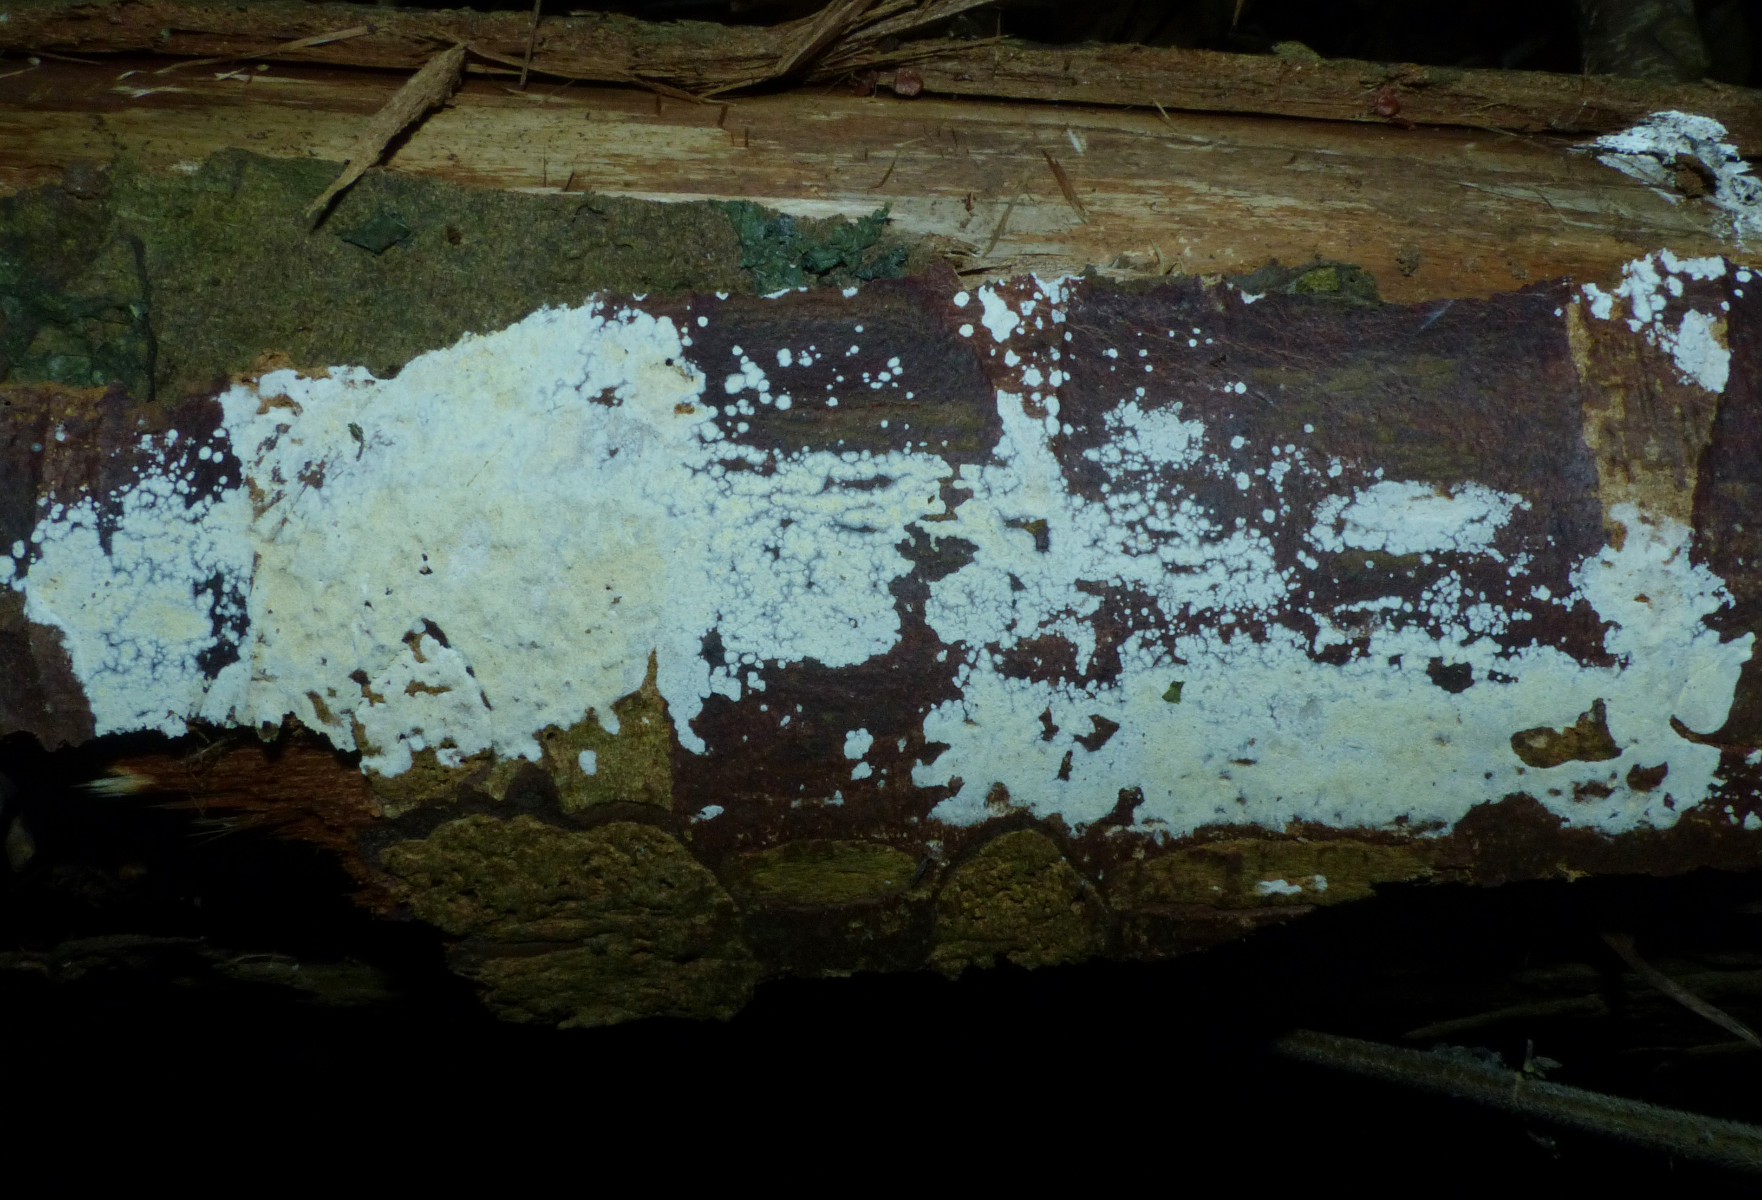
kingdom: Fungi
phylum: Basidiomycota
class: Agaricomycetes
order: Corticiales
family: Corticiaceae
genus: Lyomyces
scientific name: Lyomyces crustosus
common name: vortet hyldehinde
